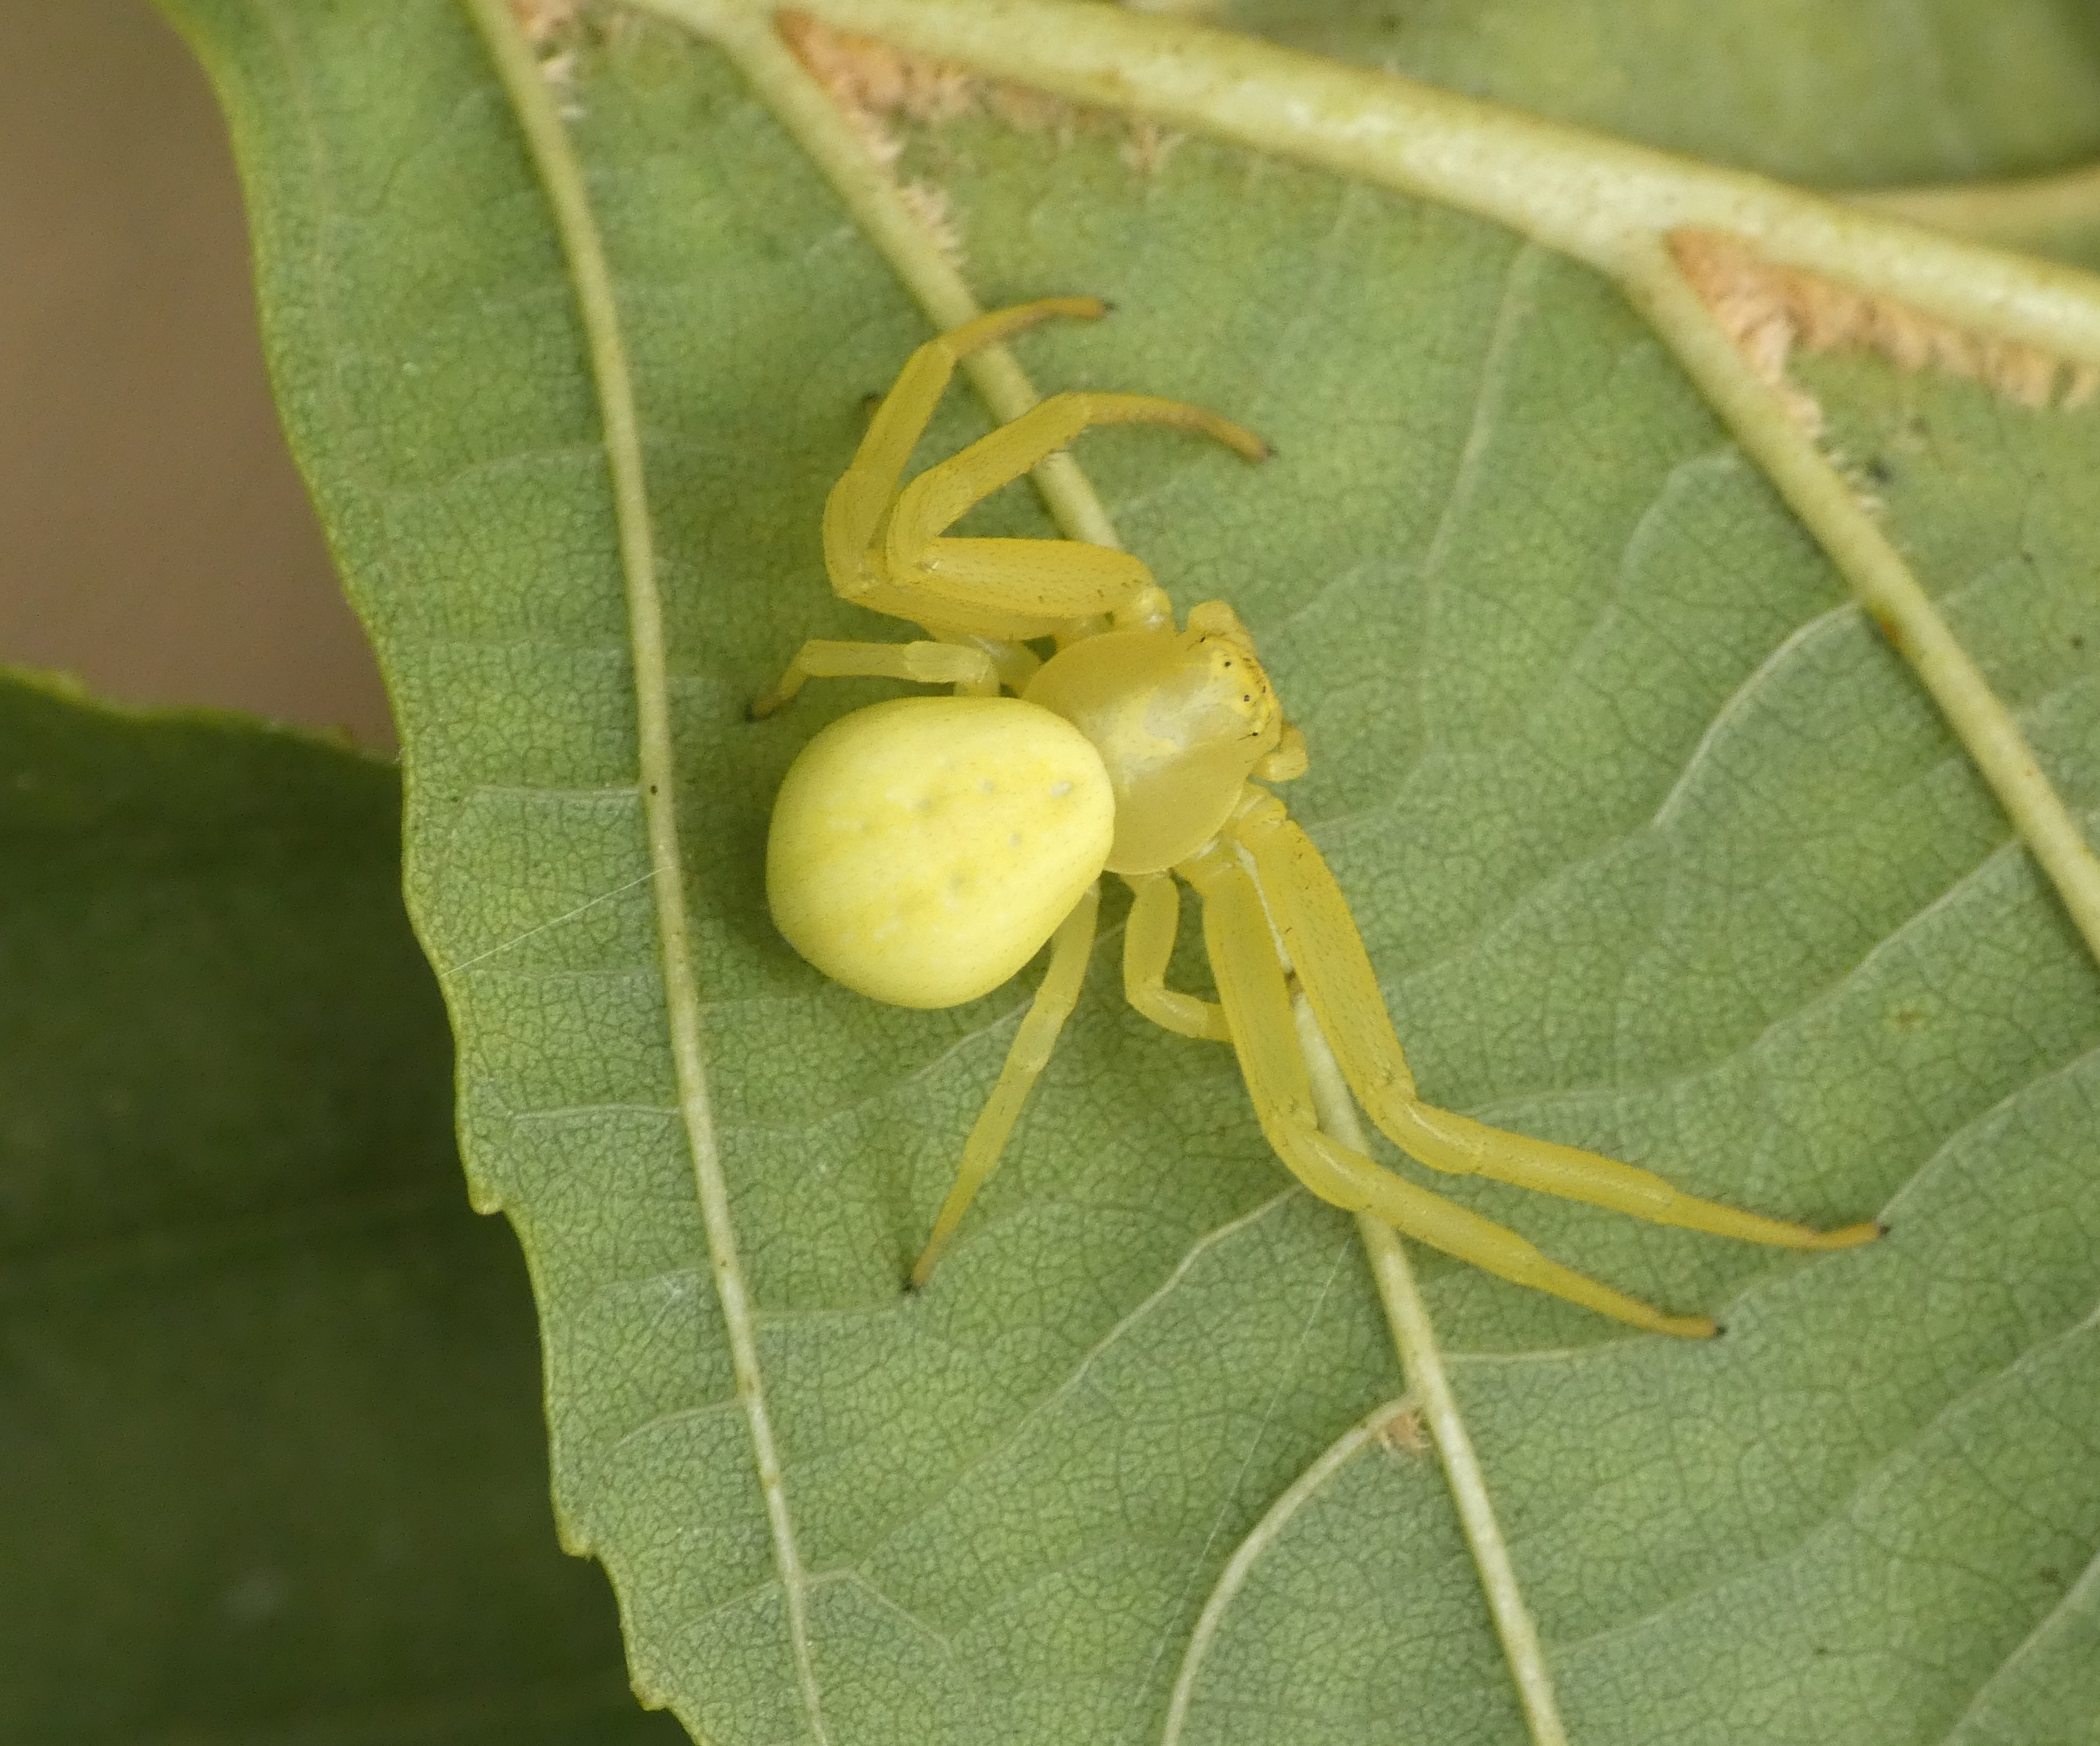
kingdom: Animalia
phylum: Arthropoda
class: Arachnida
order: Araneae
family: Thomisidae
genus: Misumena
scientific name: Misumena vatia
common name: Kamæleonedderkop
